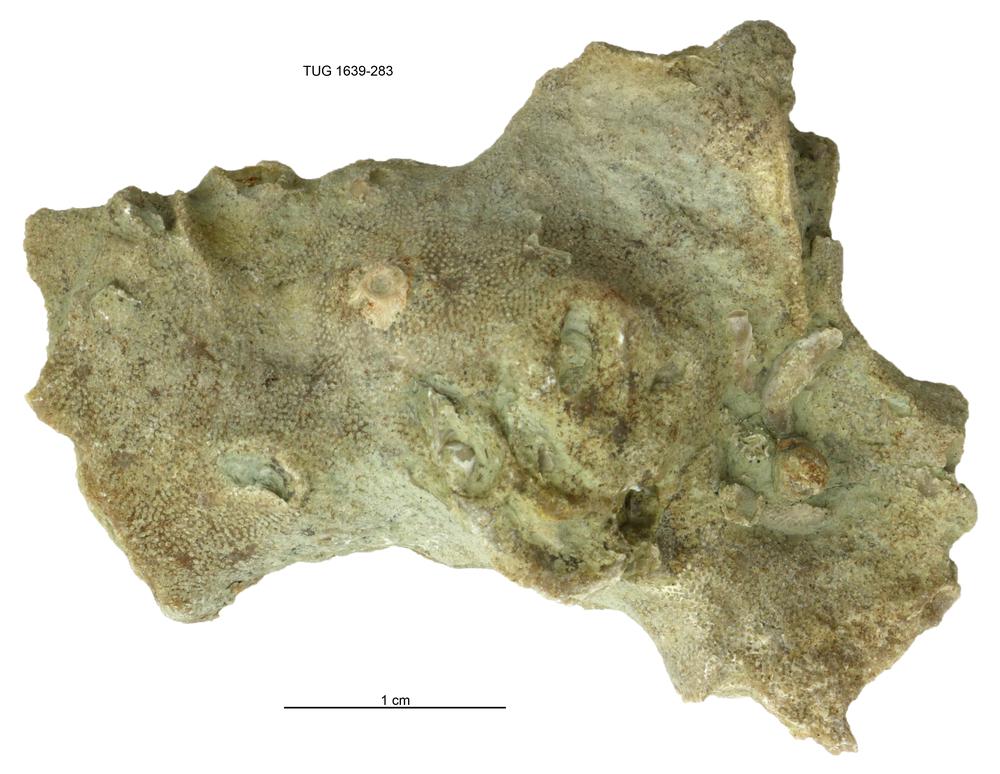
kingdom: Animalia
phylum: Bryozoa
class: Stenolaemata
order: Cystoporida
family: Fistuliporidae
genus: Fistulipora
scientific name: Fistulipora przhidolensis
